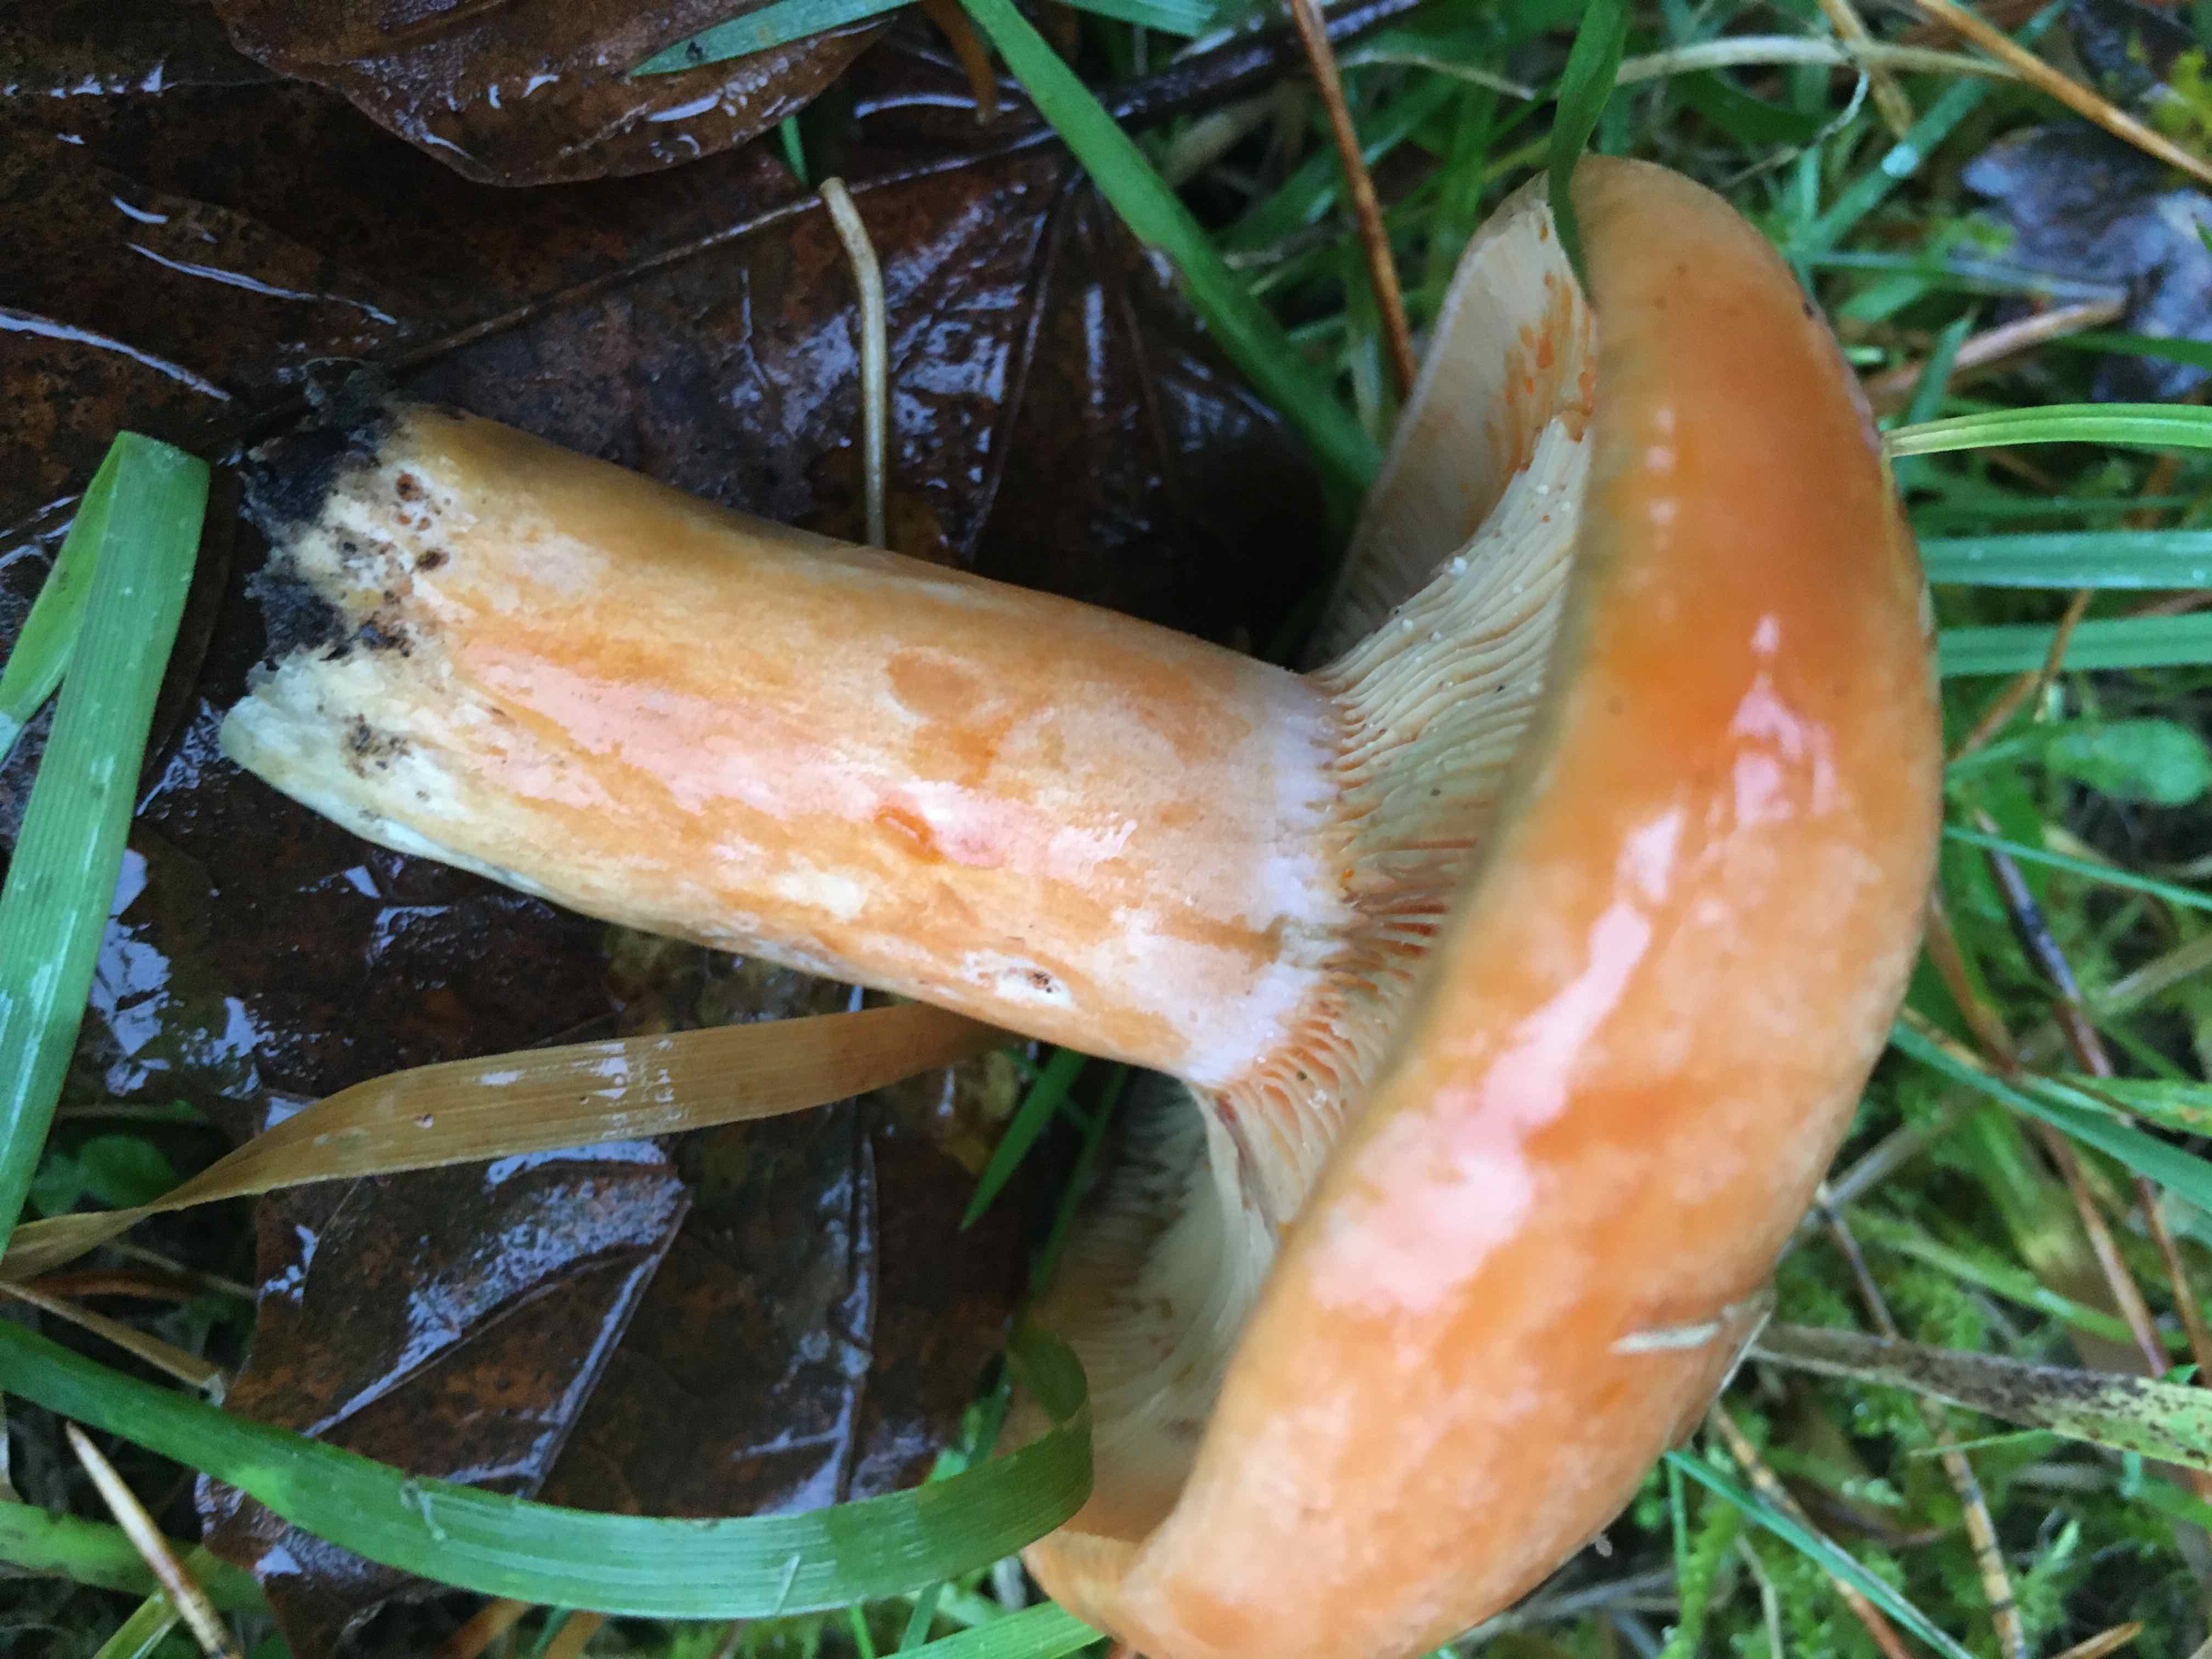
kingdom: Fungi
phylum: Basidiomycota
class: Agaricomycetes
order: Russulales
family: Russulaceae
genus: Lactarius
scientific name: Lactarius deliciosus
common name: velsmagende mælkehat
